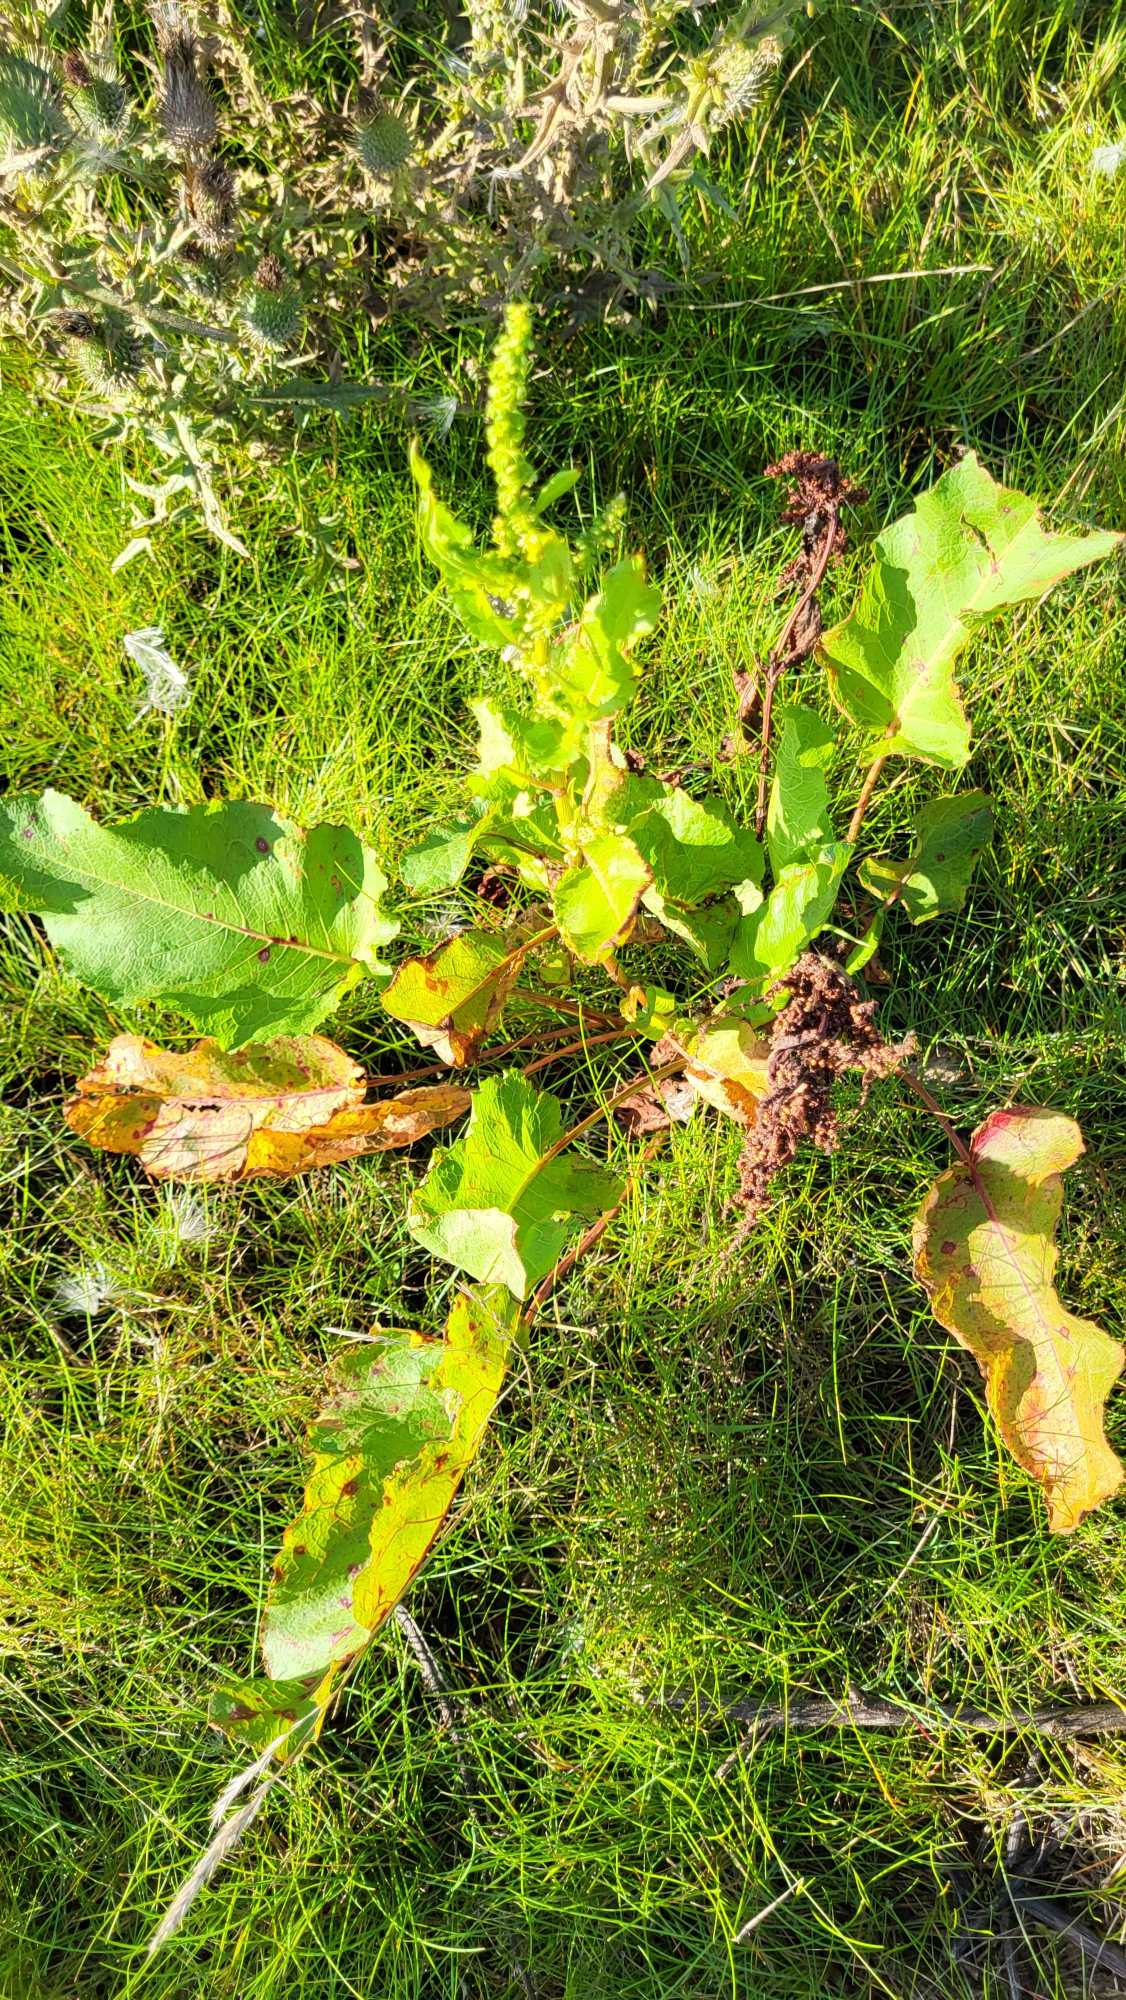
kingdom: Plantae
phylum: Tracheophyta
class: Magnoliopsida
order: Caryophyllales
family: Polygonaceae
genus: Rumex
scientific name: Rumex obtusifolius
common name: Butbladet skræppe
